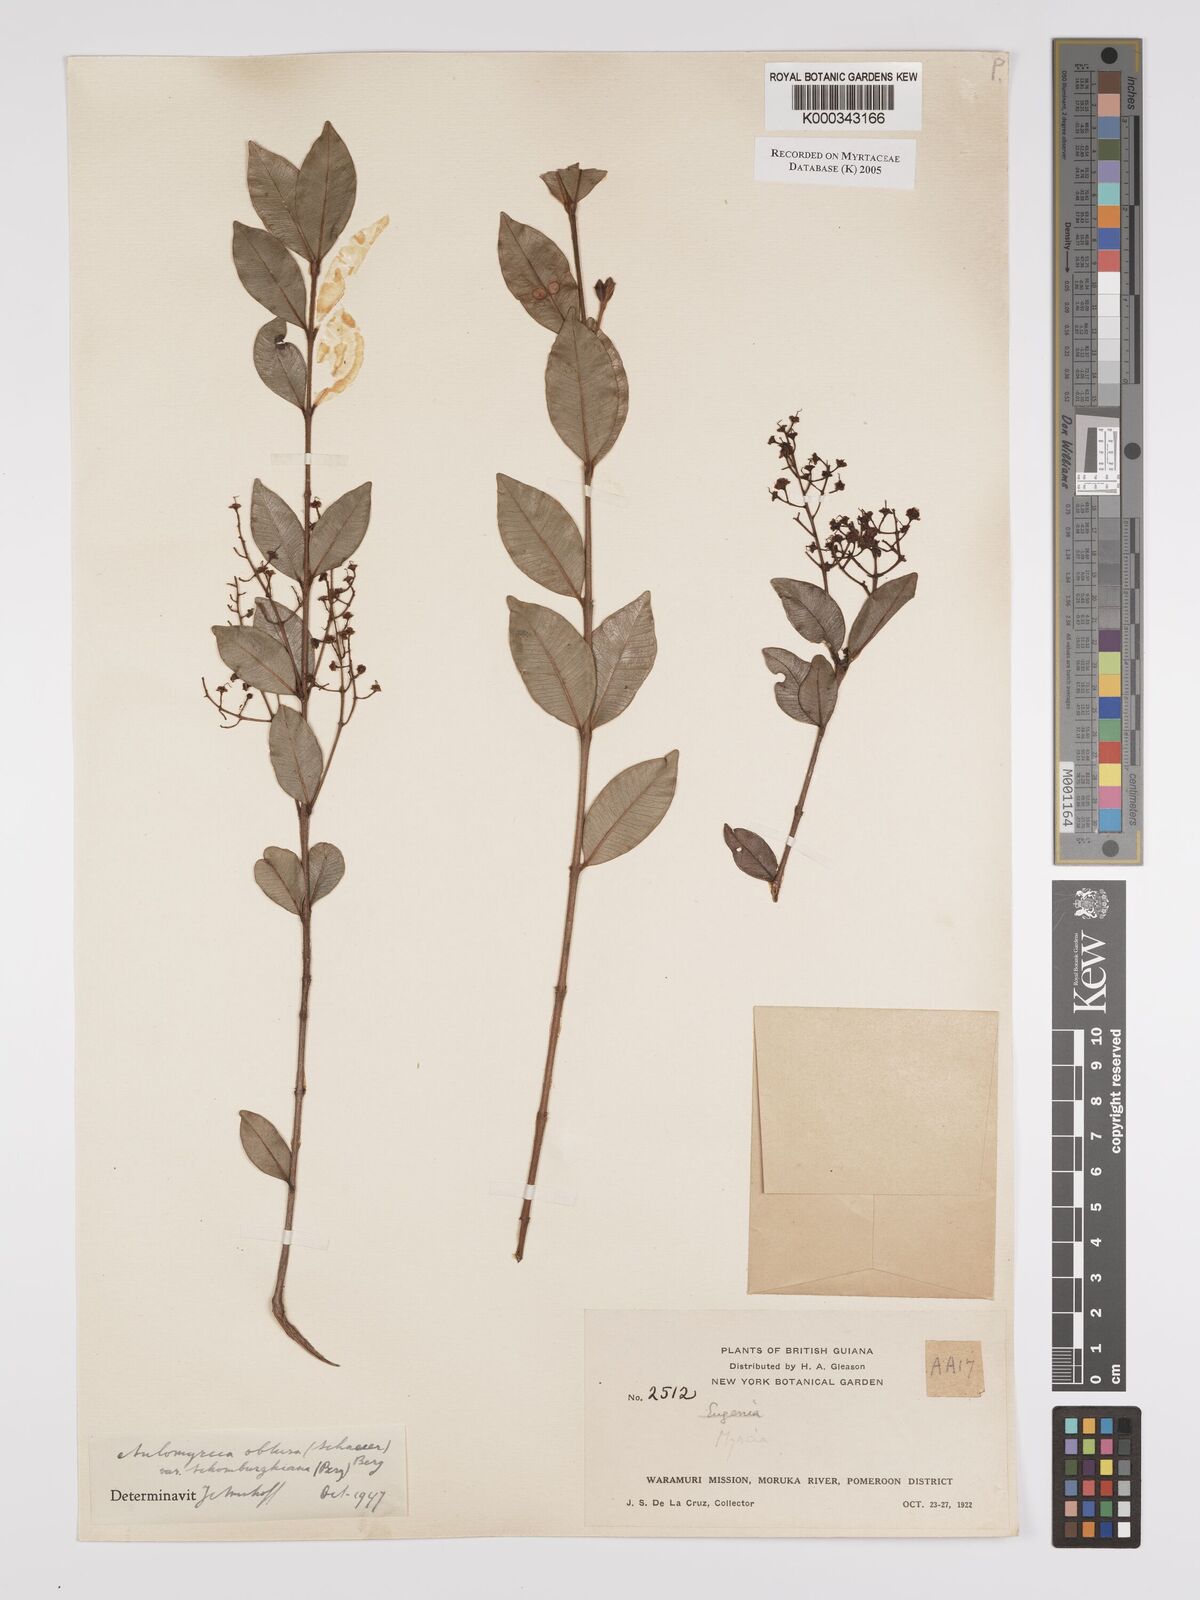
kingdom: Plantae
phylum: Tracheophyta
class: Magnoliopsida
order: Myrtales
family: Myrtaceae
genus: Myrcia
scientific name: Myrcia guianensis
